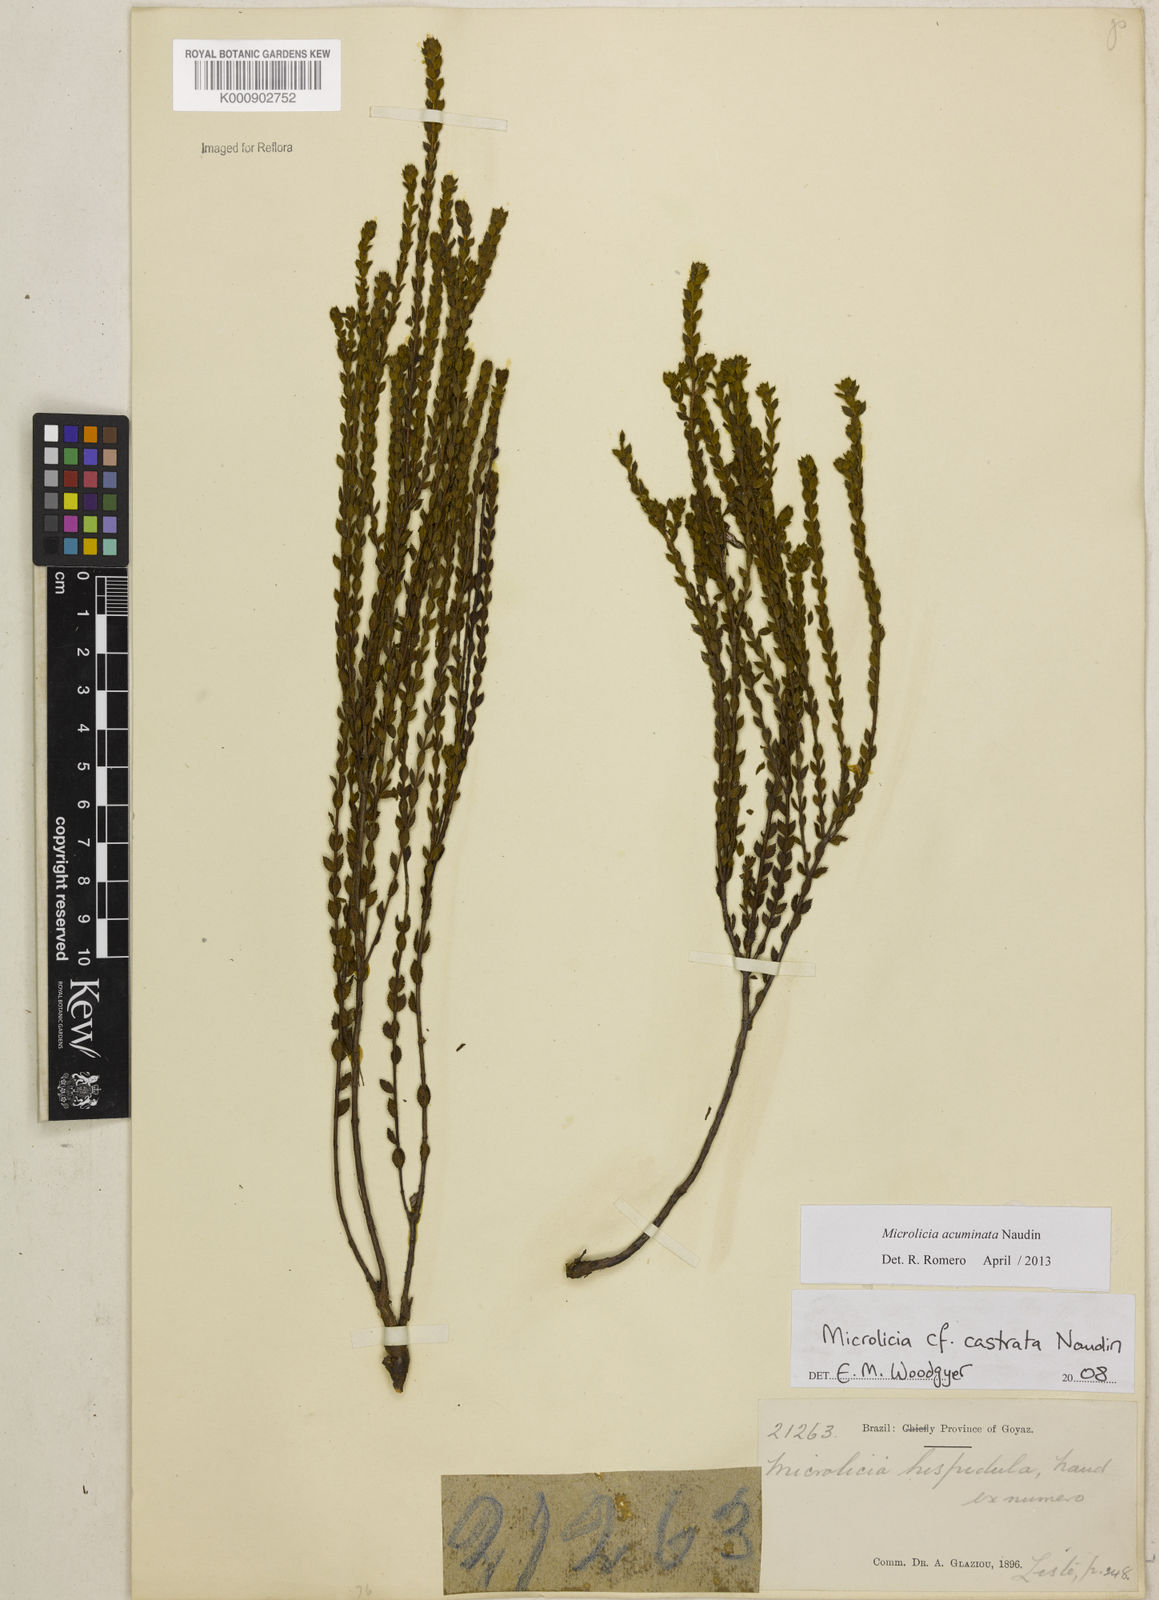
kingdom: Plantae
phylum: Tracheophyta
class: Magnoliopsida
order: Myrtales
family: Melastomataceae
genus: Microlicia
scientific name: Microlicia
